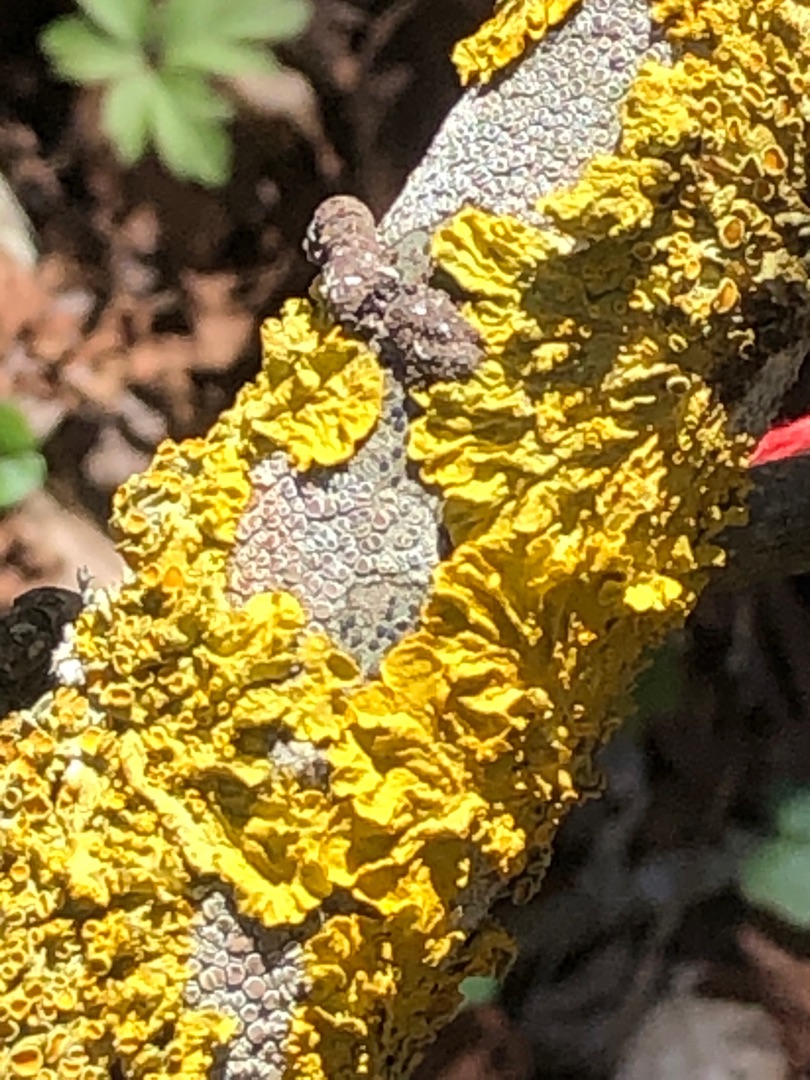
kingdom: Fungi
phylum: Ascomycota
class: Lecanoromycetes
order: Teloschistales
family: Teloschistaceae
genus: Xanthoria
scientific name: Xanthoria parietina
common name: Almindelig væggelav
